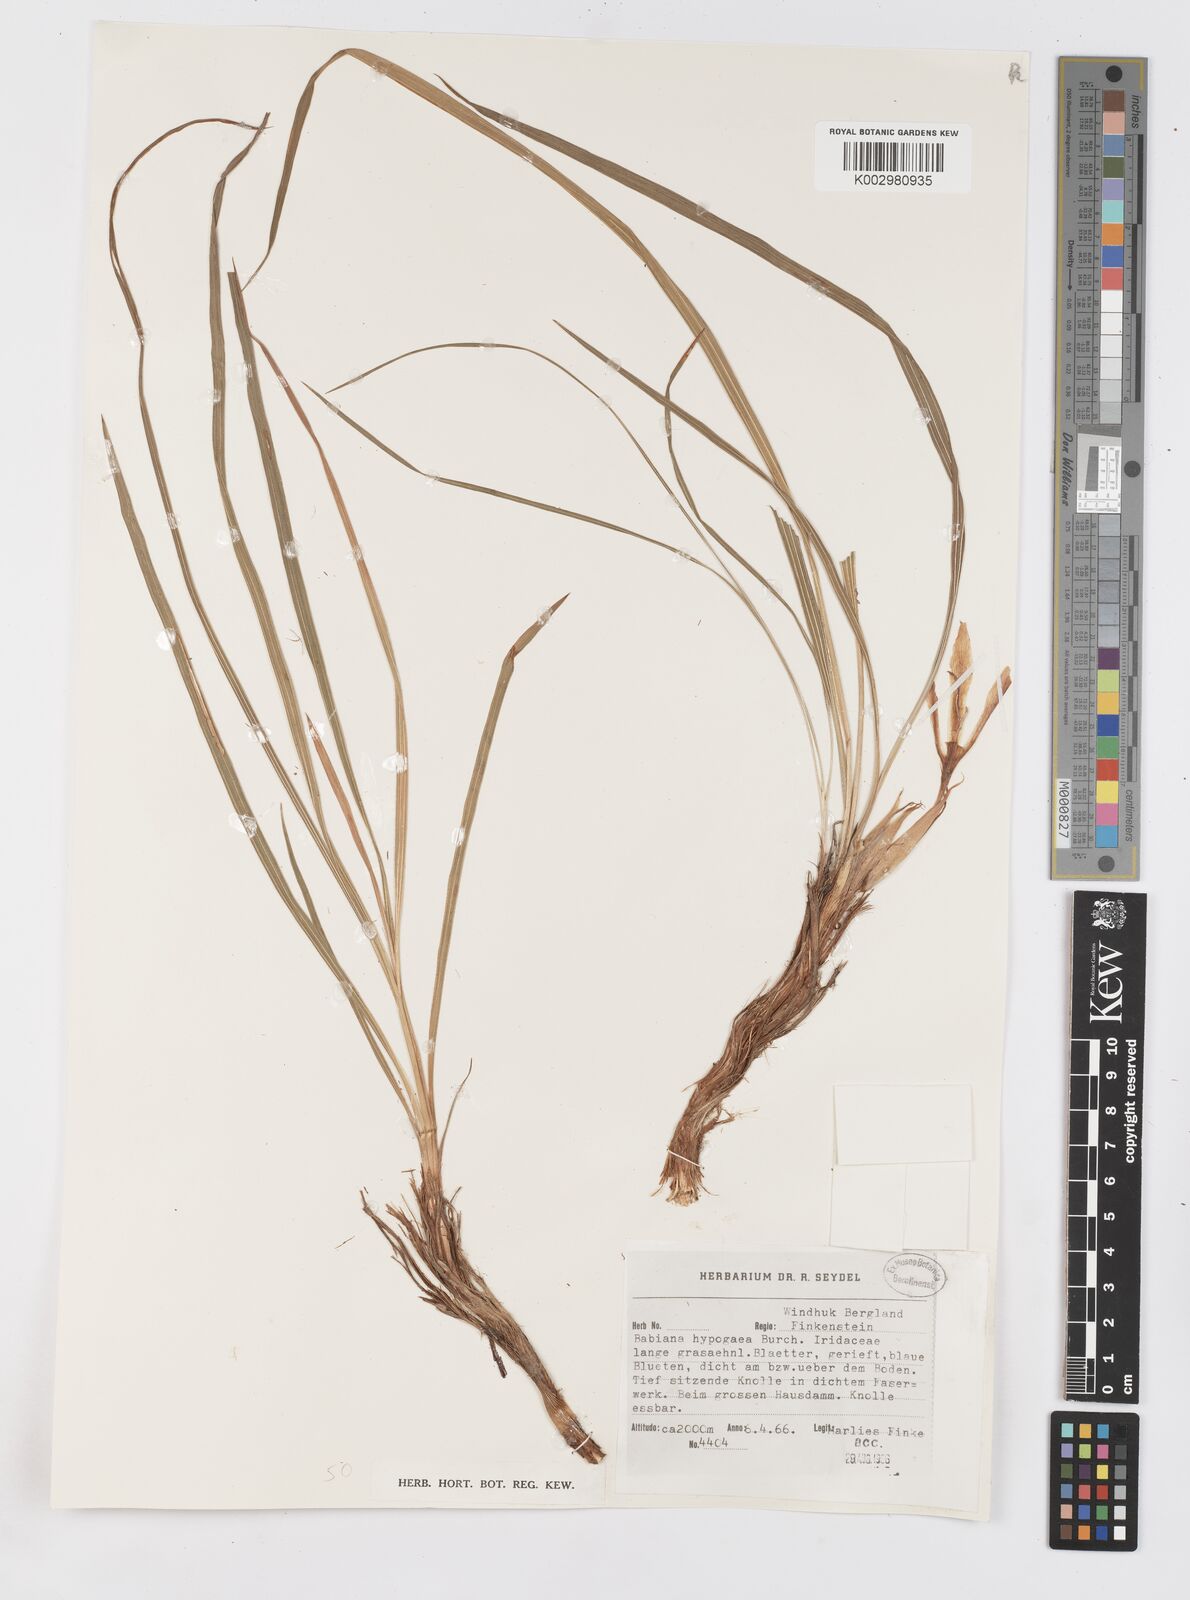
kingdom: Plantae
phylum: Tracheophyta
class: Liliopsida
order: Asparagales
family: Iridaceae
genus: Babiana
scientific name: Babiana hypogaea
